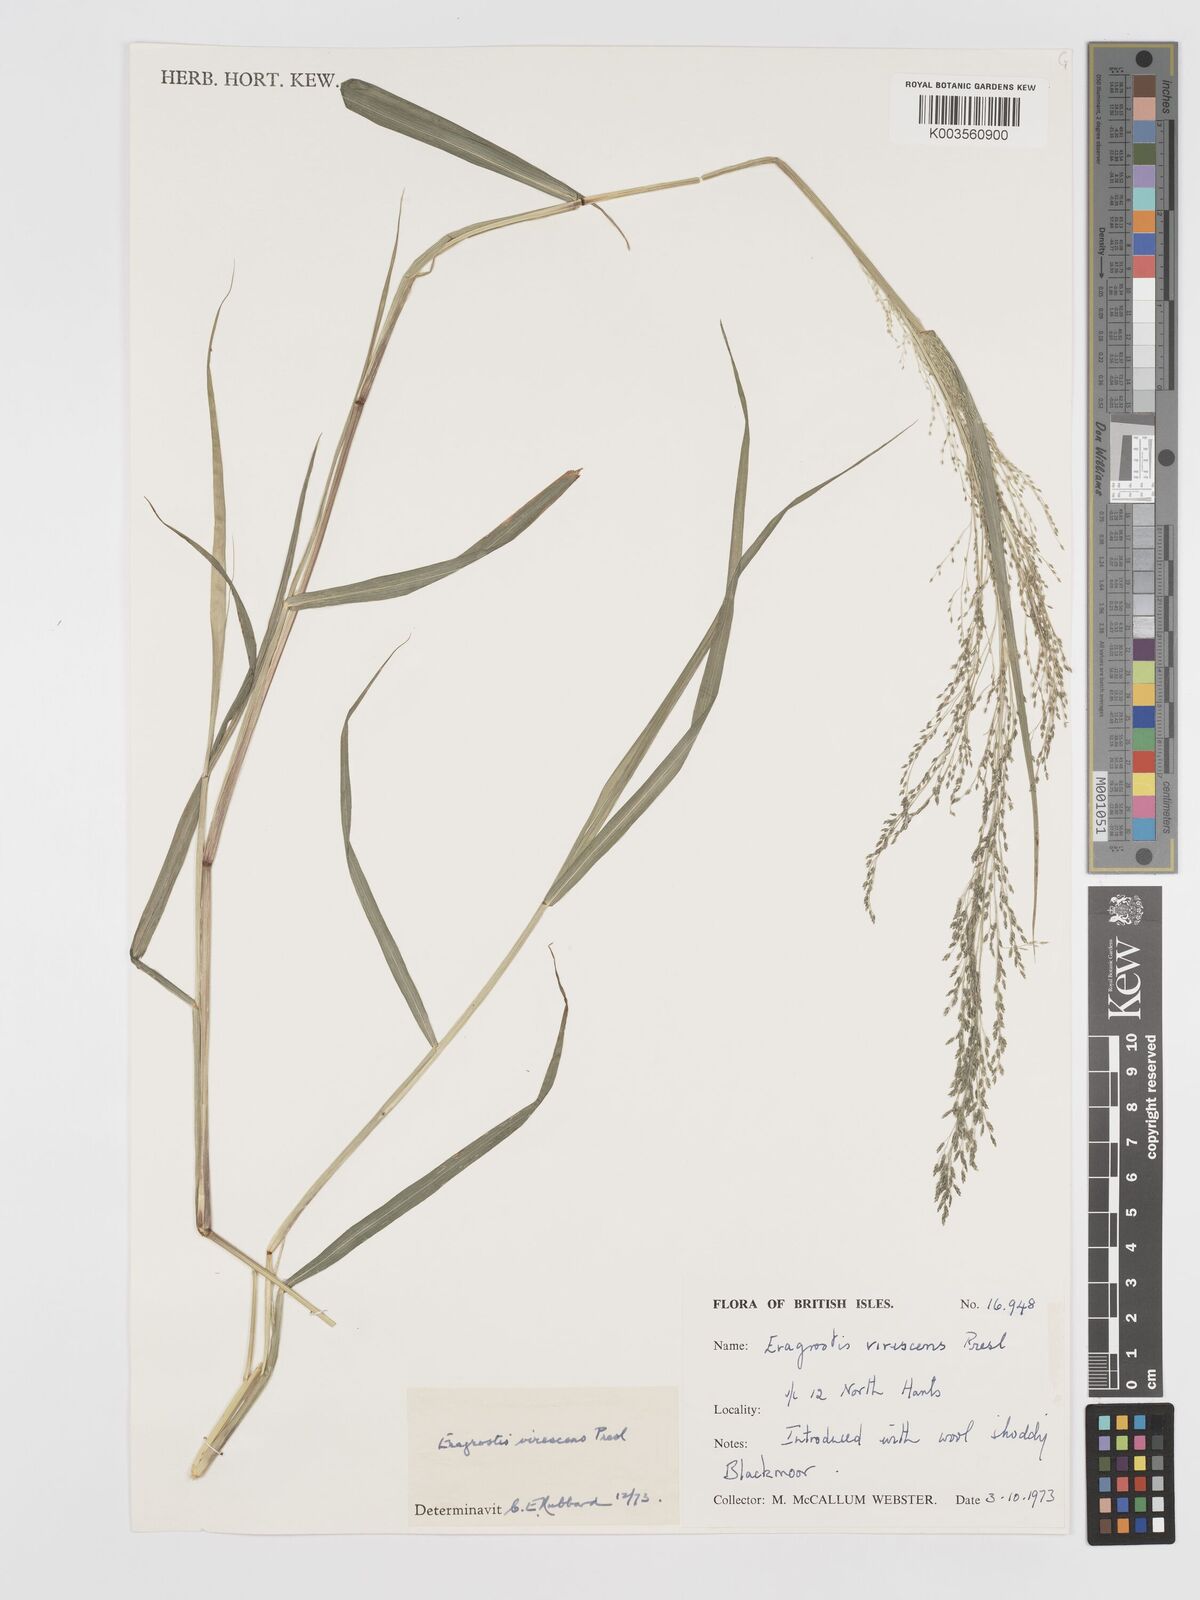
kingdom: Plantae
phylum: Tracheophyta
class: Liliopsida
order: Poales
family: Poaceae
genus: Eragrostis
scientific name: Eragrostis mexicana
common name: Mexican love grass
